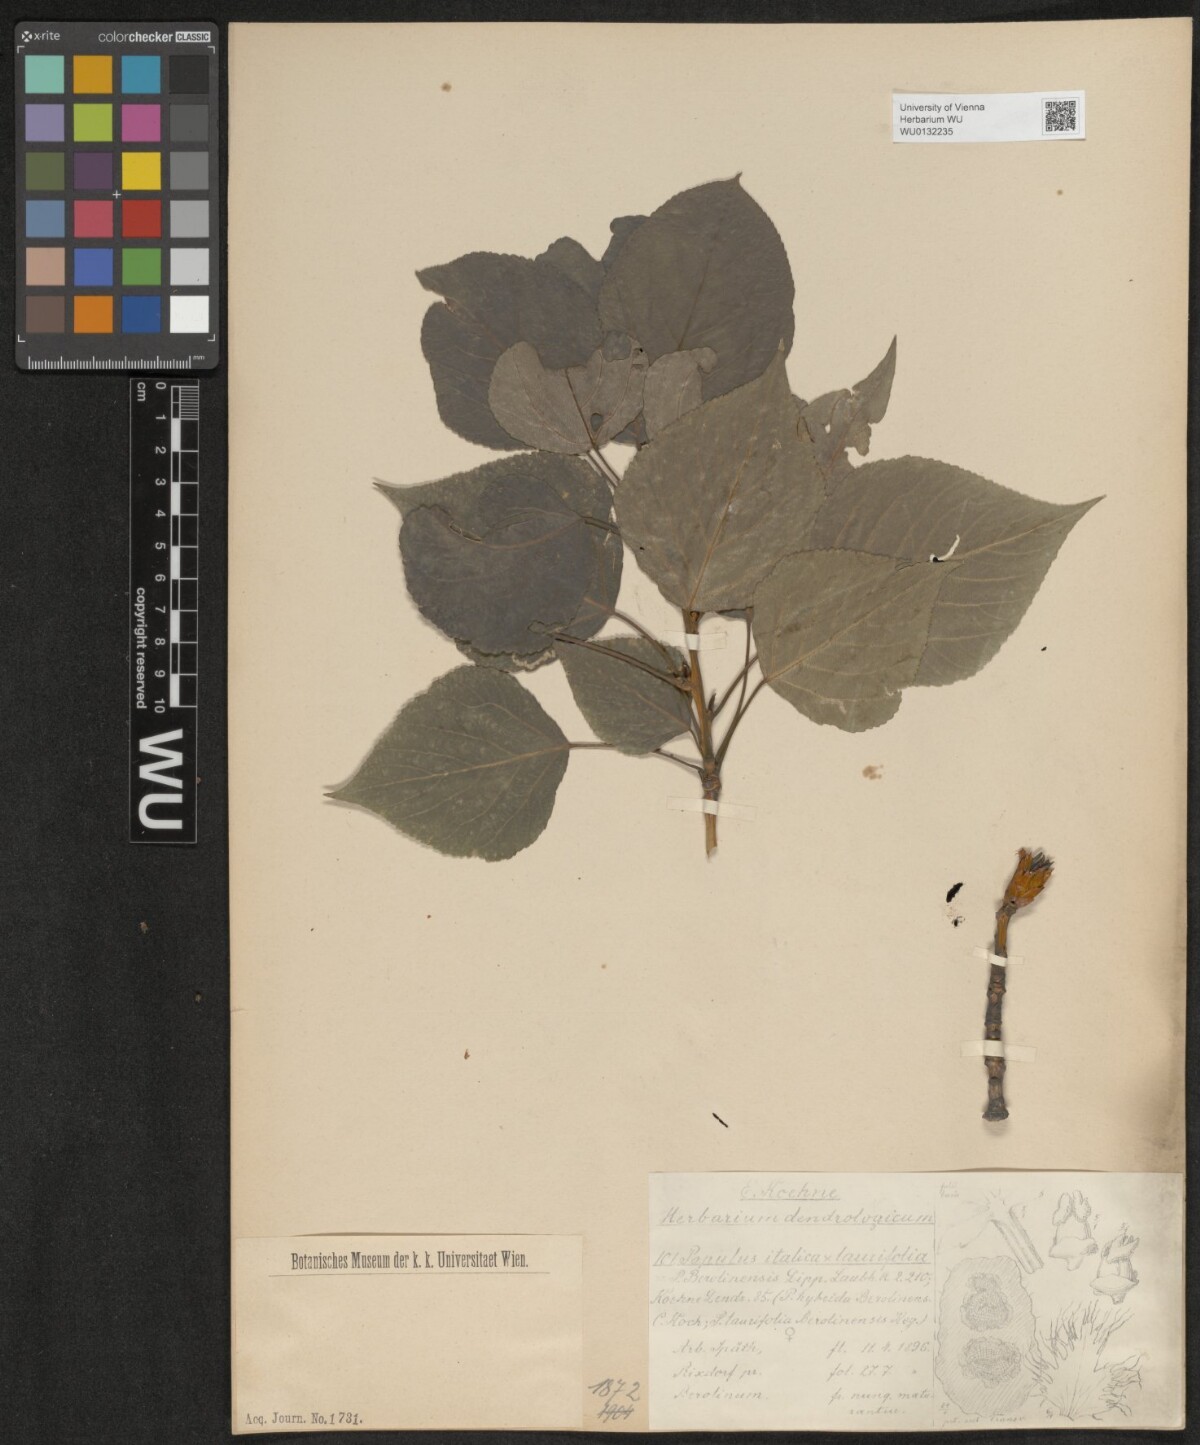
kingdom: Plantae
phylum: Tracheophyta
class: Magnoliopsida
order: Malpighiales
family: Salicaceae
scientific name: Salicaceae
